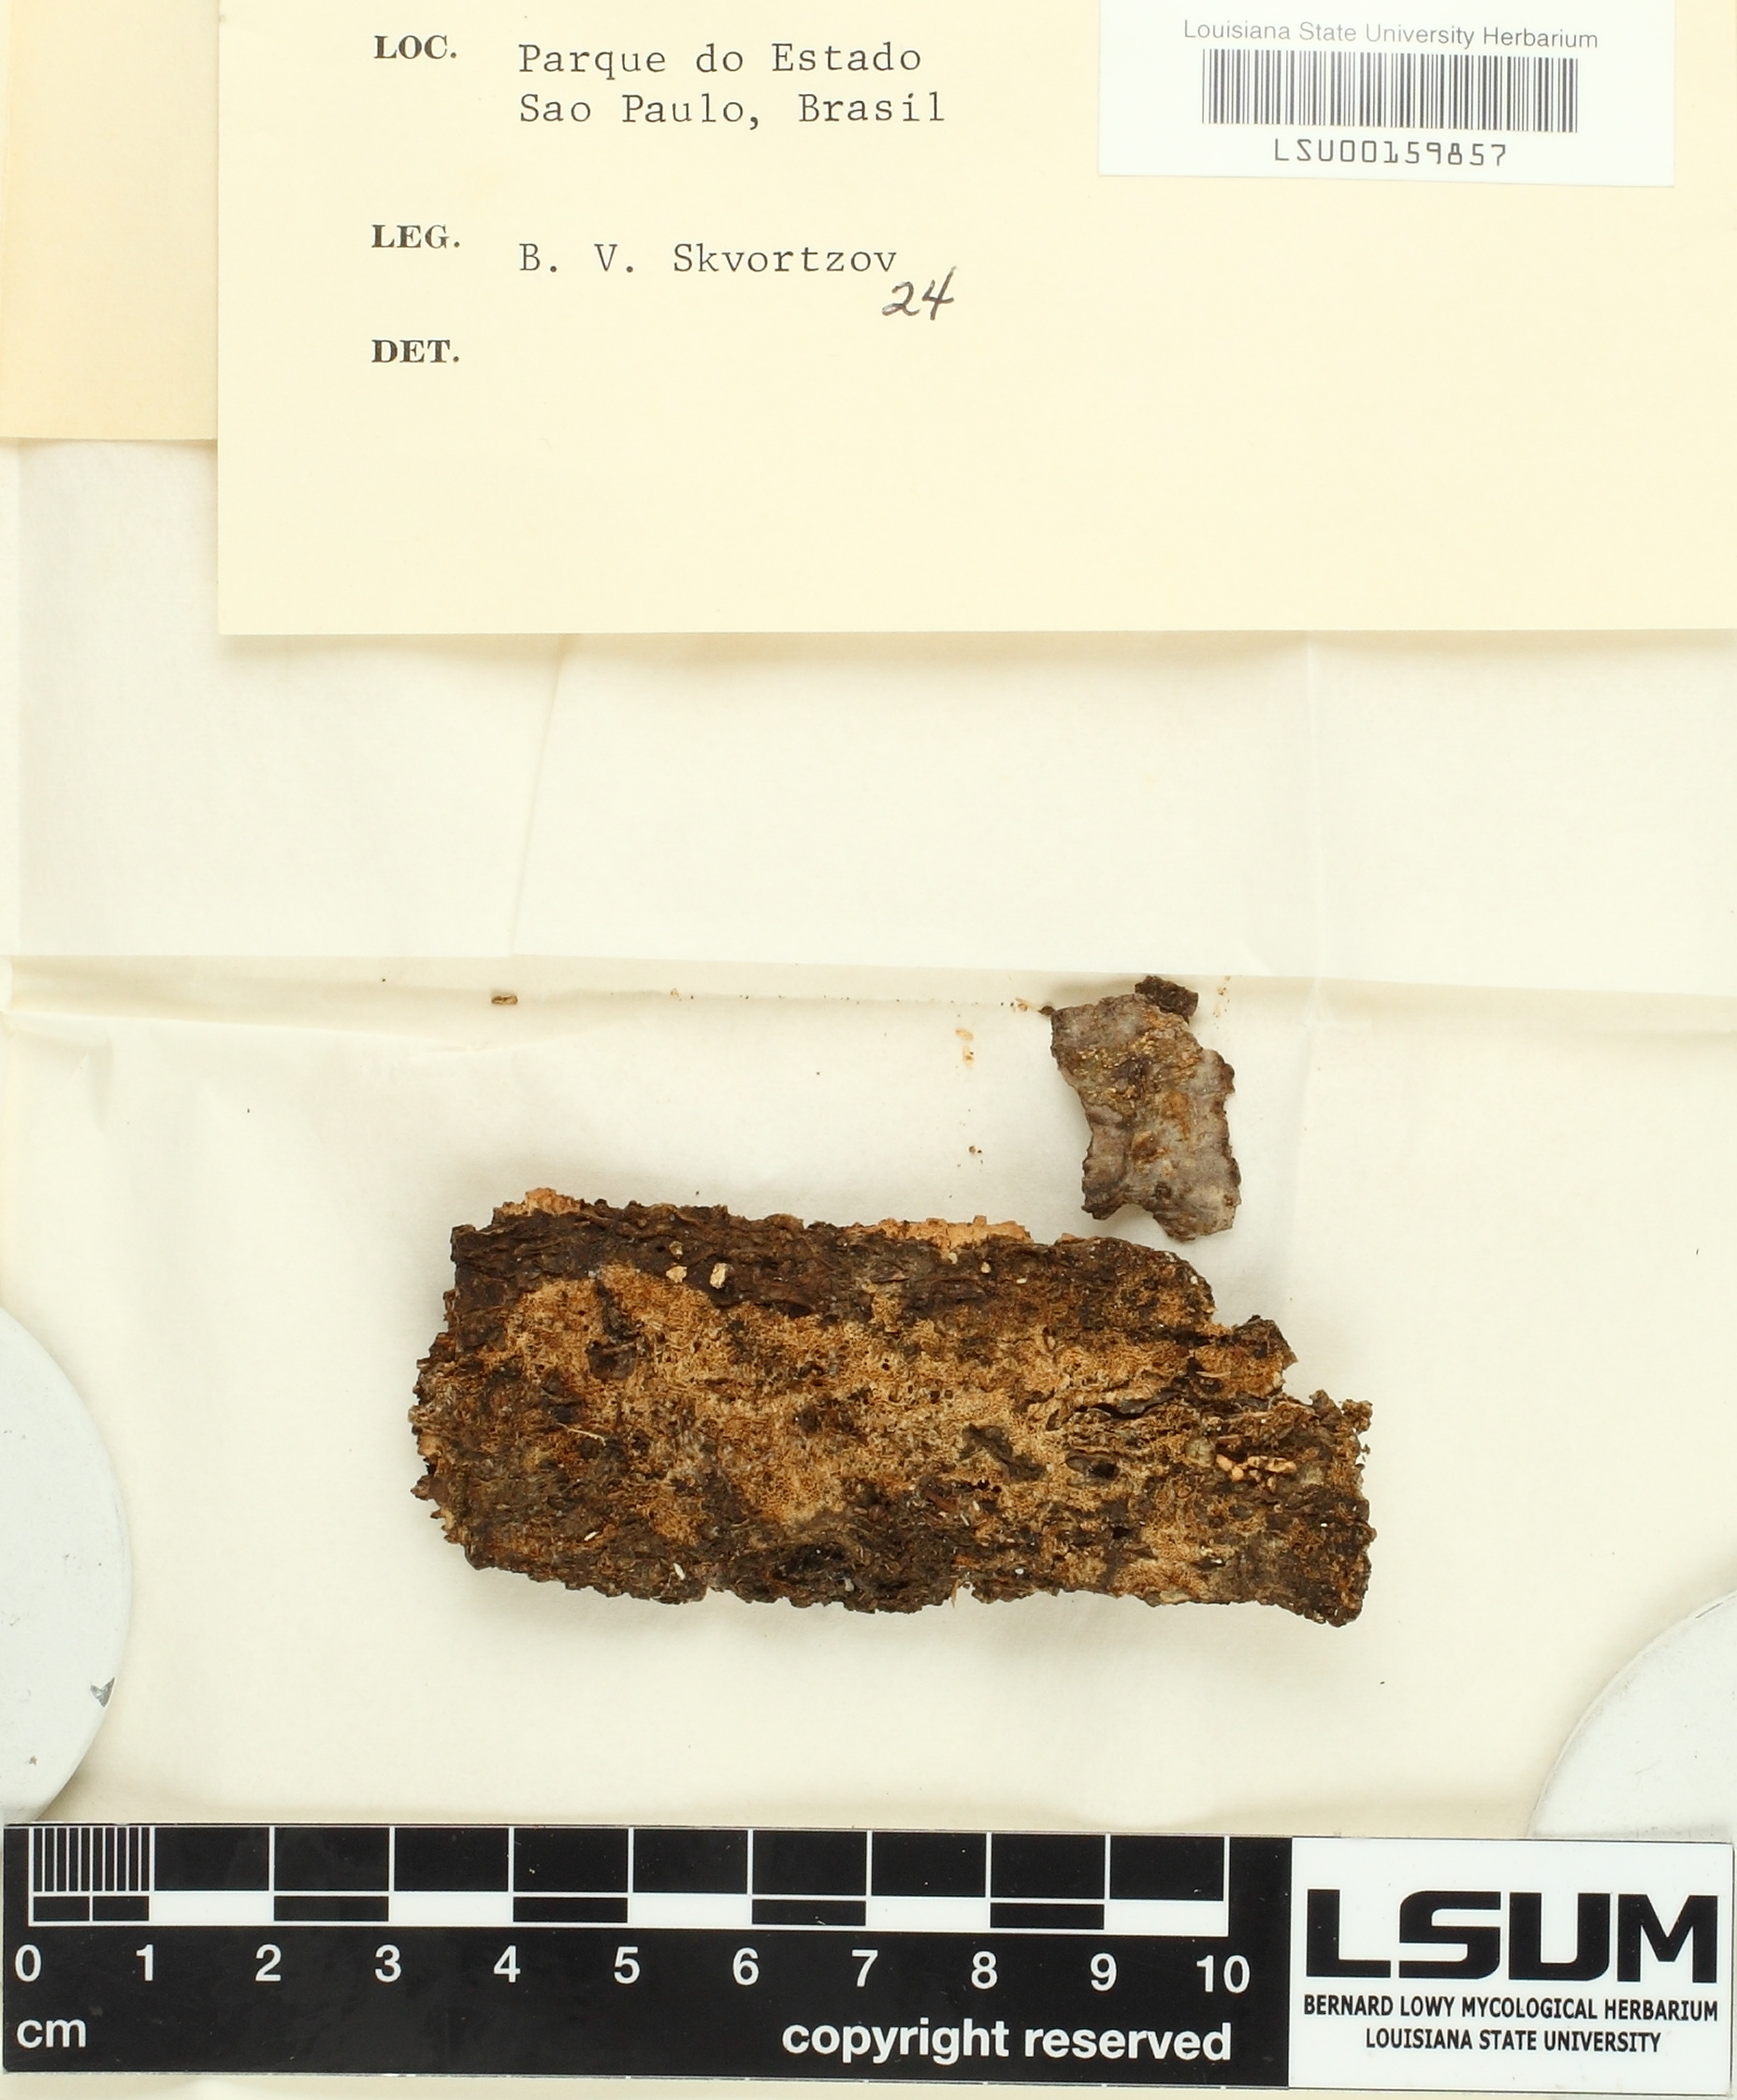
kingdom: Fungi
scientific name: Fungi
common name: Fungi
